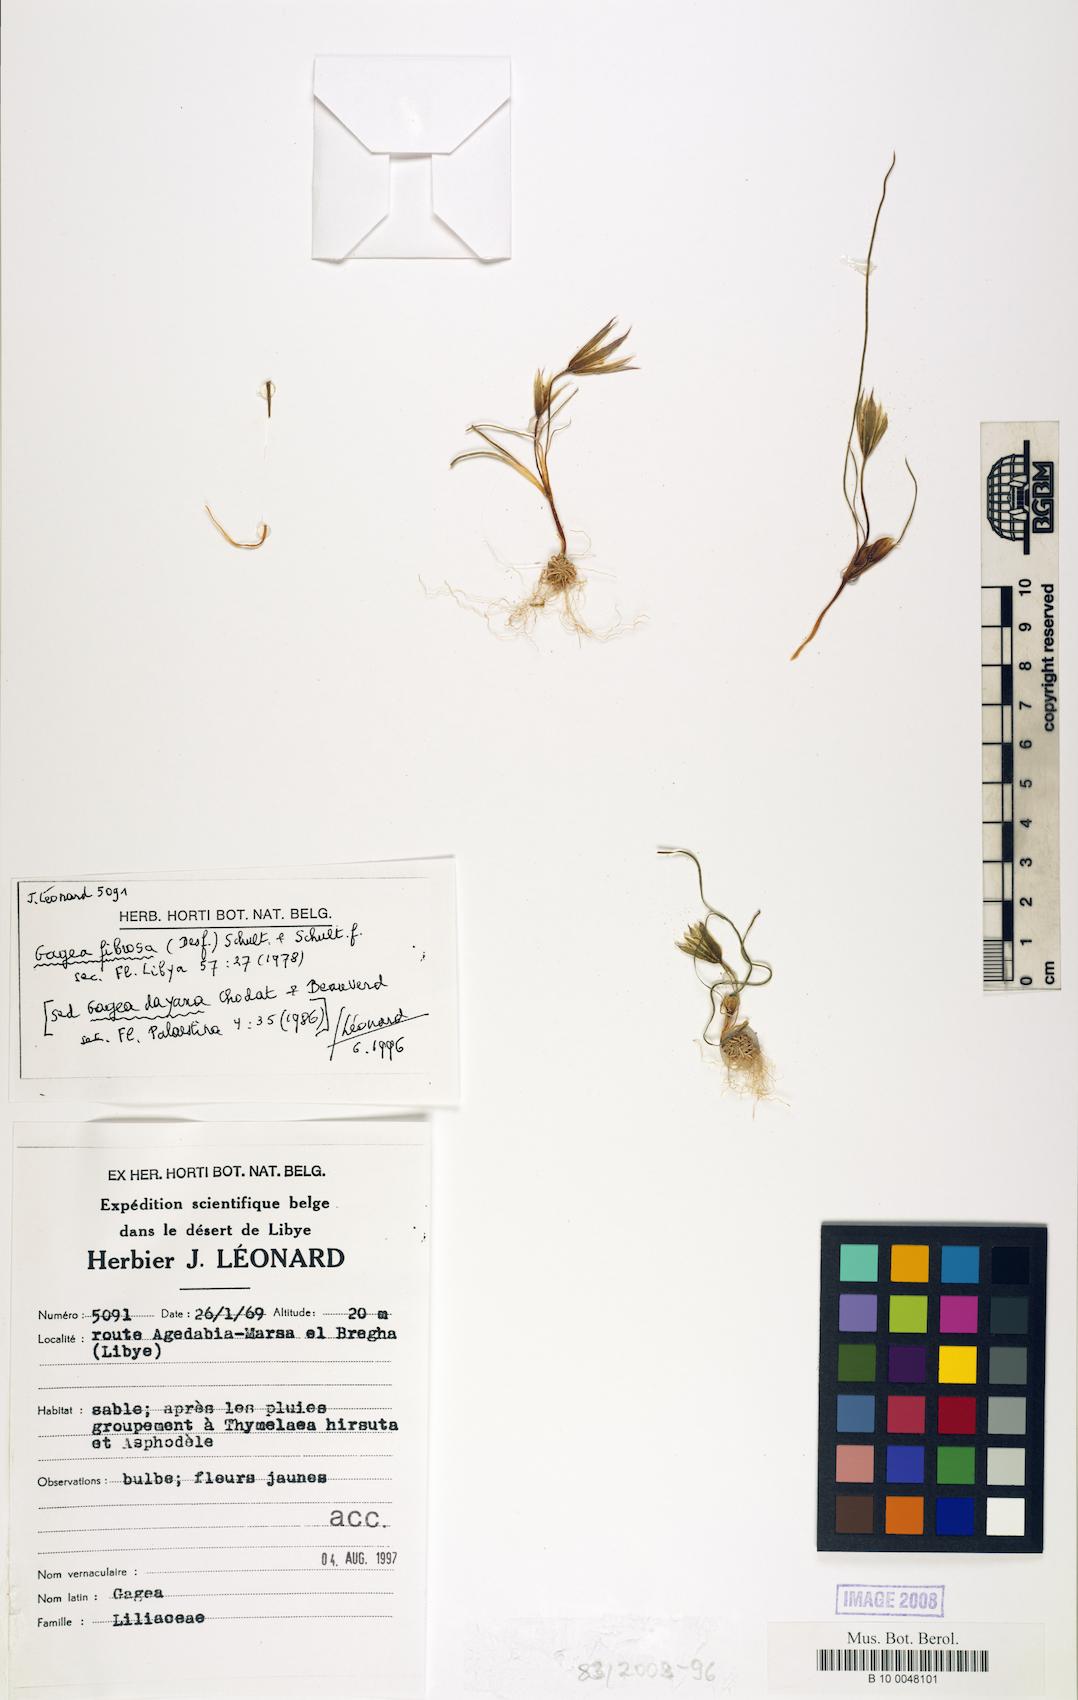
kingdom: Plantae
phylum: Tracheophyta
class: Liliopsida
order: Liliales
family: Liliaceae
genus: Gagea
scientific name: Gagea fibrosa
